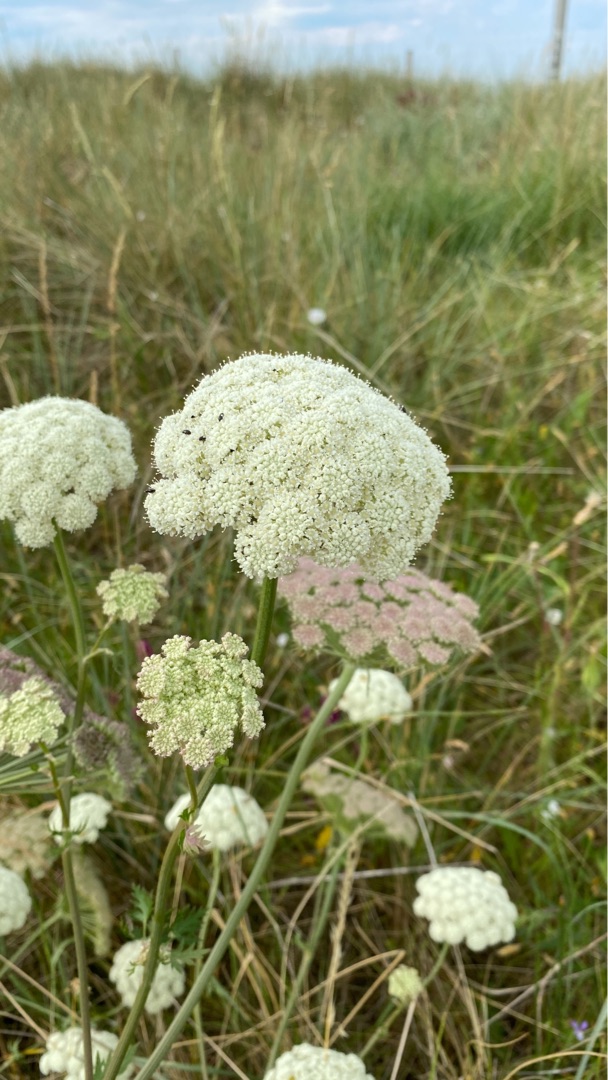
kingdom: Plantae
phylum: Tracheophyta
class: Magnoliopsida
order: Apiales
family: Apiaceae
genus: Seseli
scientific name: Seseli libanotis
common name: Hjorterod
